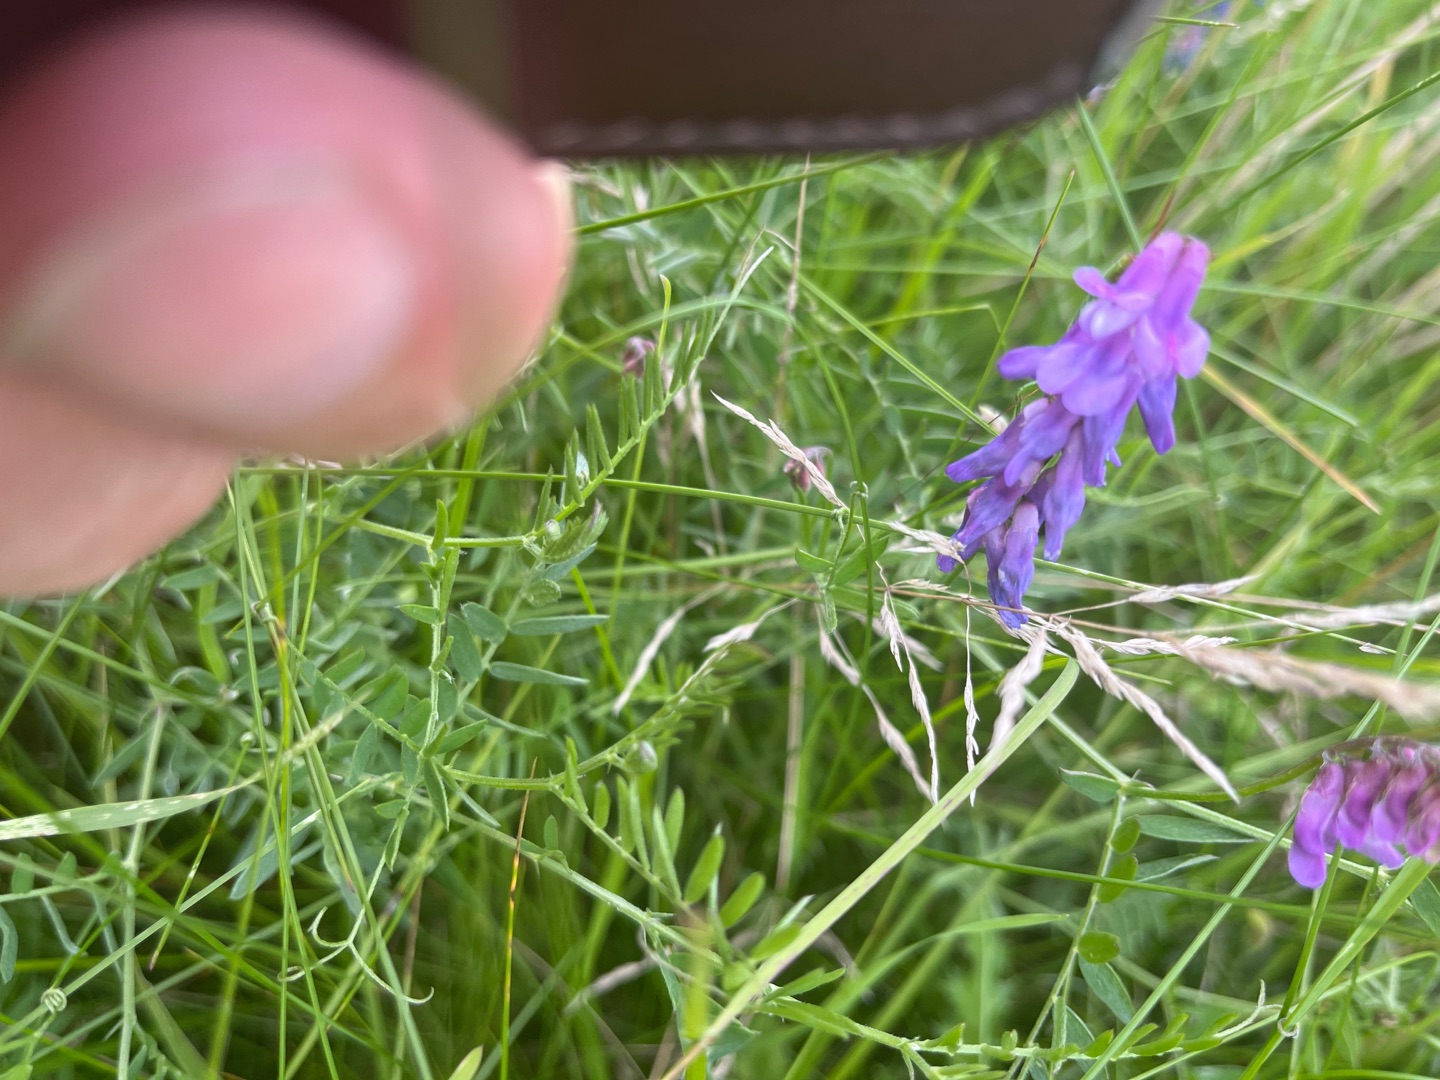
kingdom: Plantae
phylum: Tracheophyta
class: Magnoliopsida
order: Fabales
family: Fabaceae
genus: Vicia
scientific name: Vicia cracca
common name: Muse-vikke
